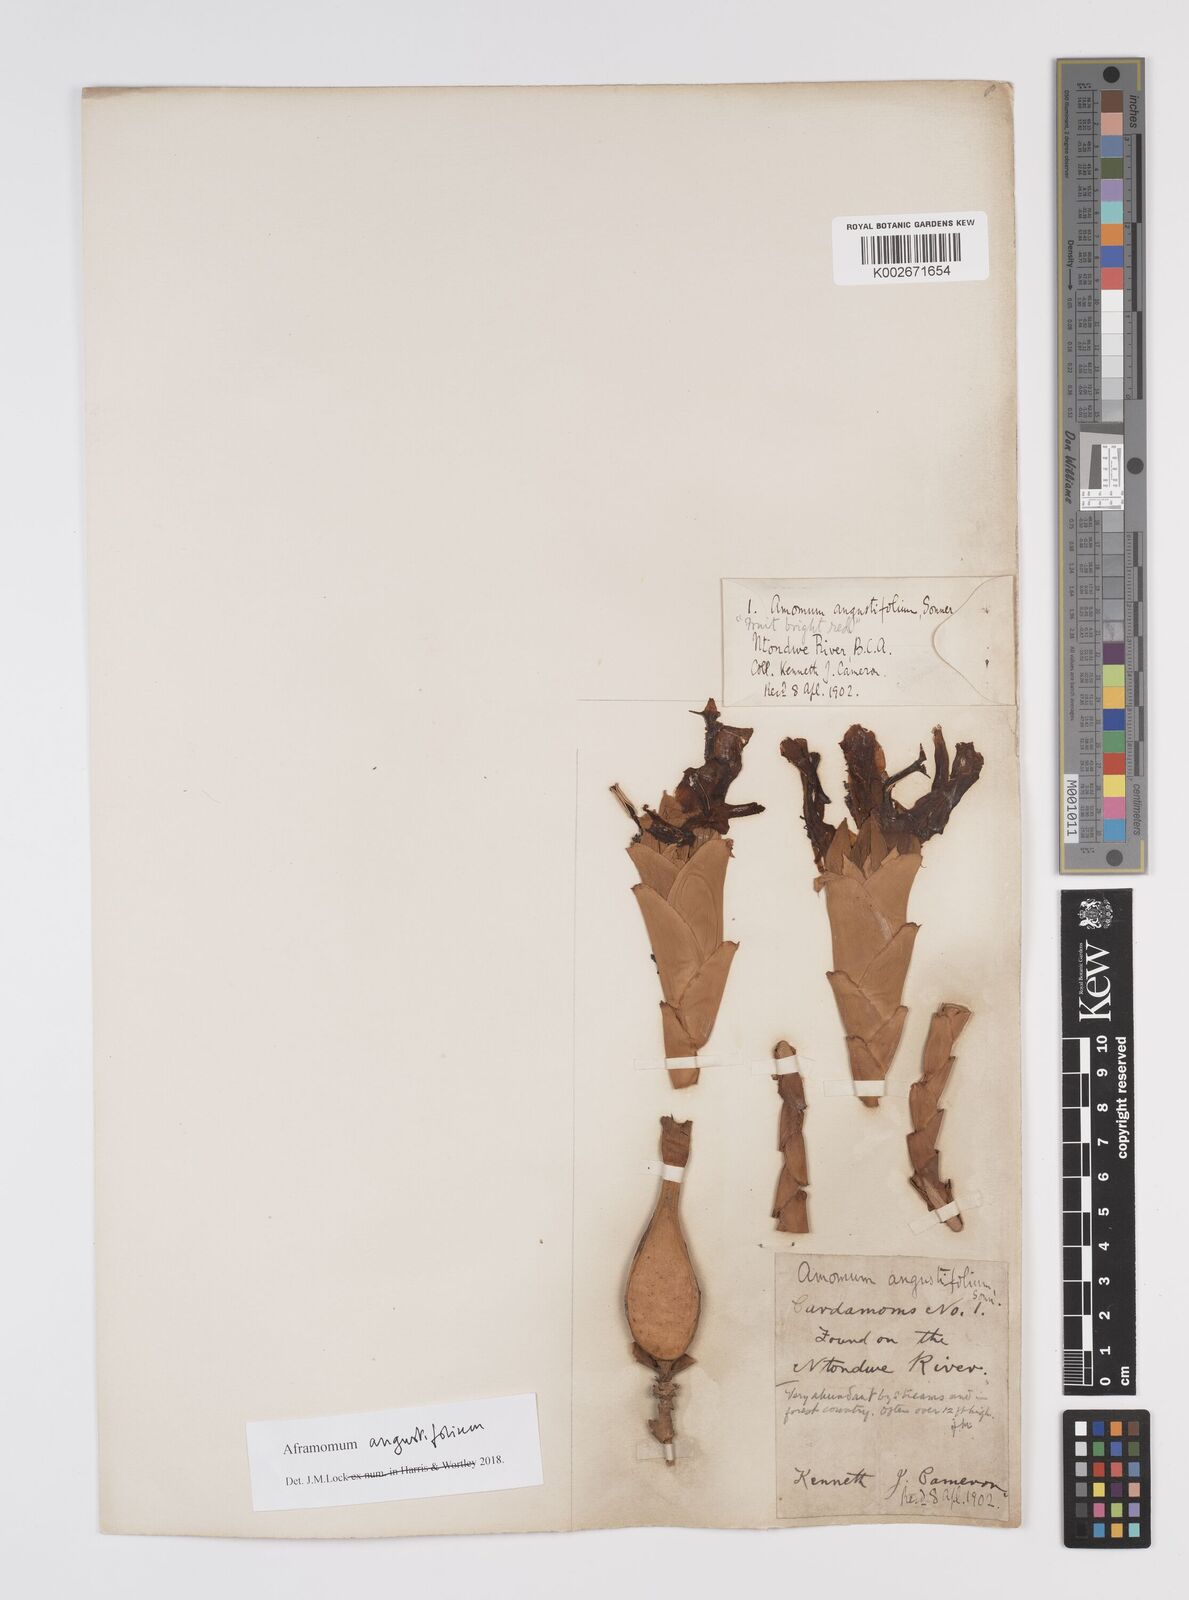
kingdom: Plantae
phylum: Tracheophyta
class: Liliopsida
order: Zingiberales
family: Zingiberaceae
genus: Aframomum
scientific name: Aframomum angustifolium
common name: Guinea grains
